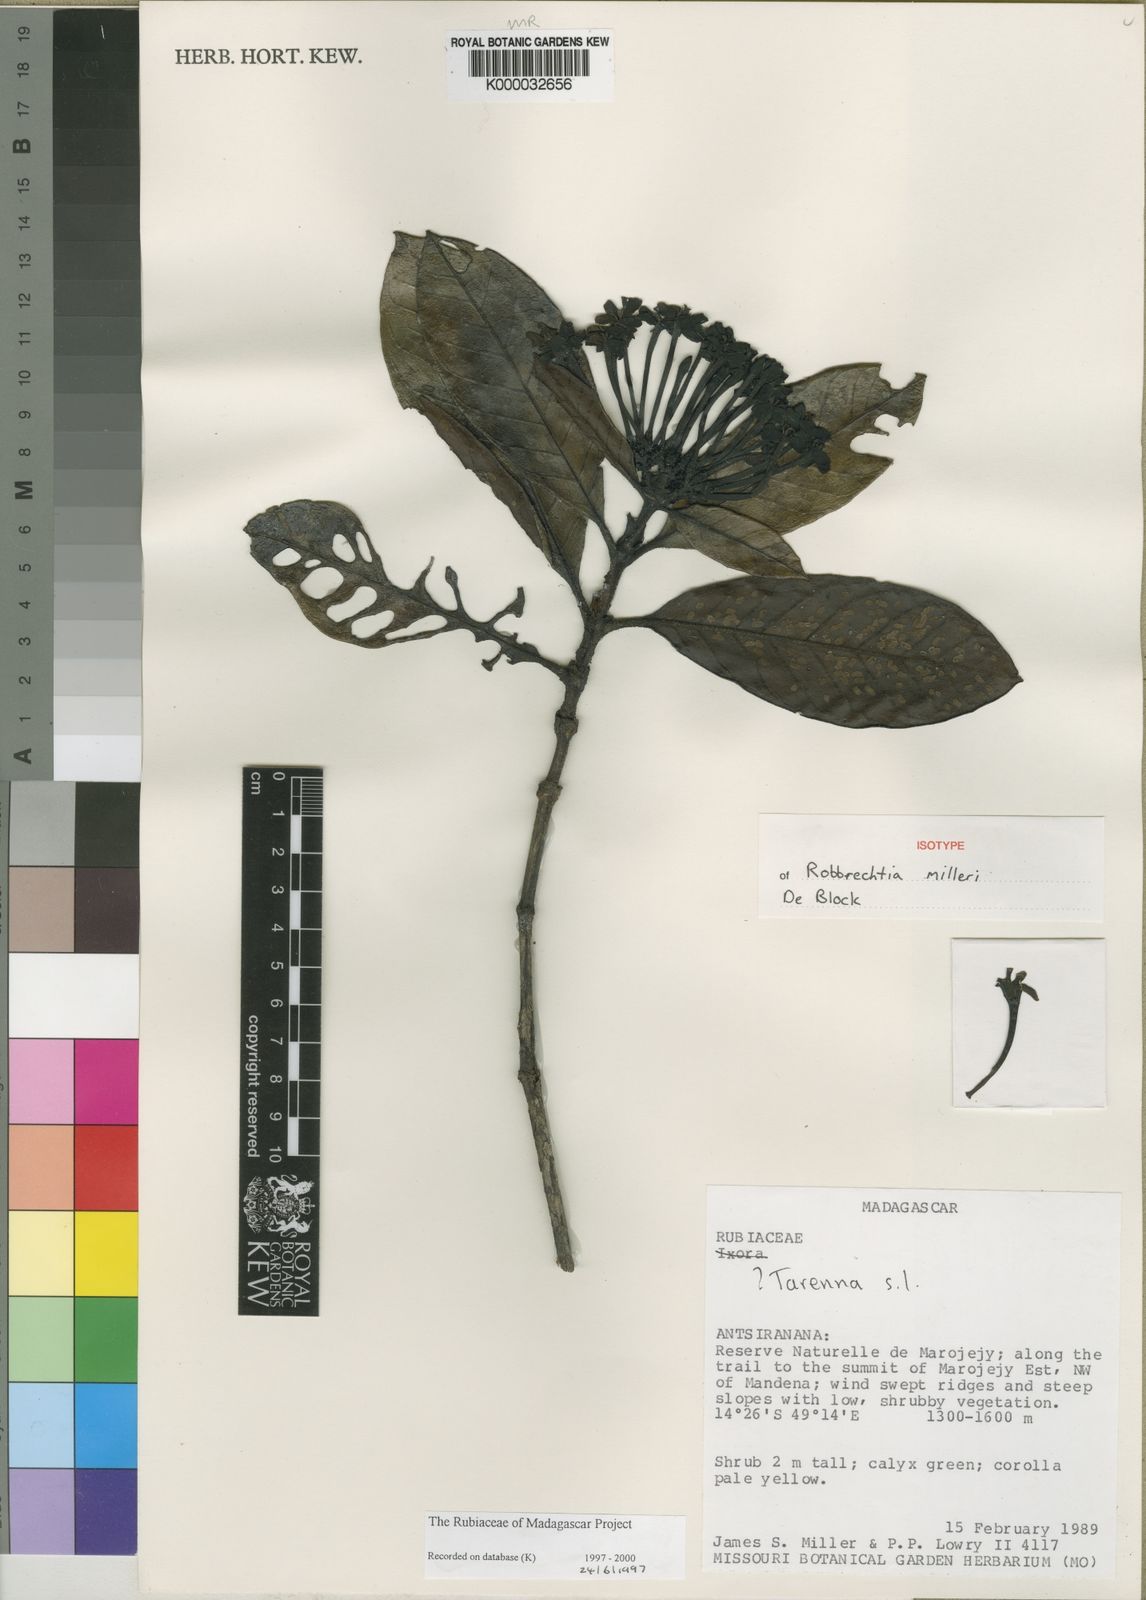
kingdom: Plantae
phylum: Tracheophyta
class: Magnoliopsida
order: Gentianales
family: Rubiaceae
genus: Robbrechtia
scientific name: Robbrechtia milleri
